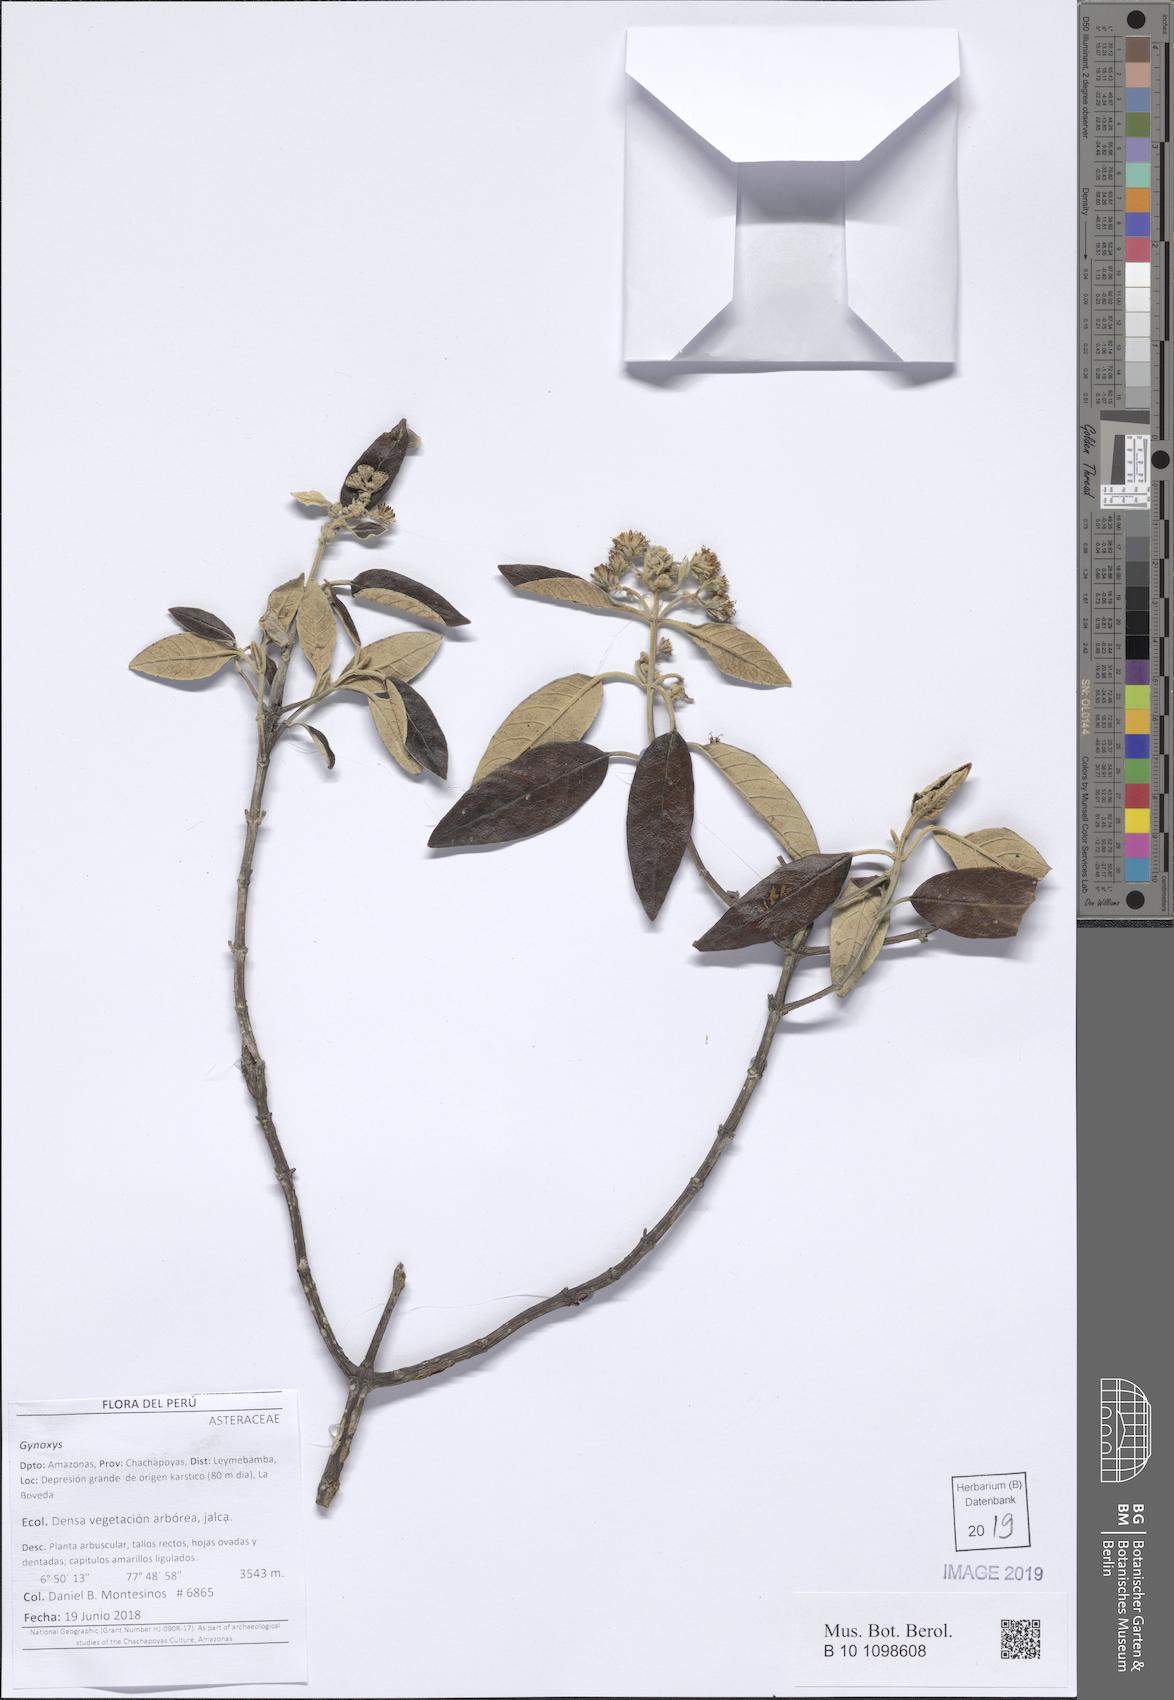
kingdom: Plantae
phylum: Tracheophyta
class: Magnoliopsida
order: Asterales
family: Asteraceae
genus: Gynoxys
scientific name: Gynoxys caracensis
